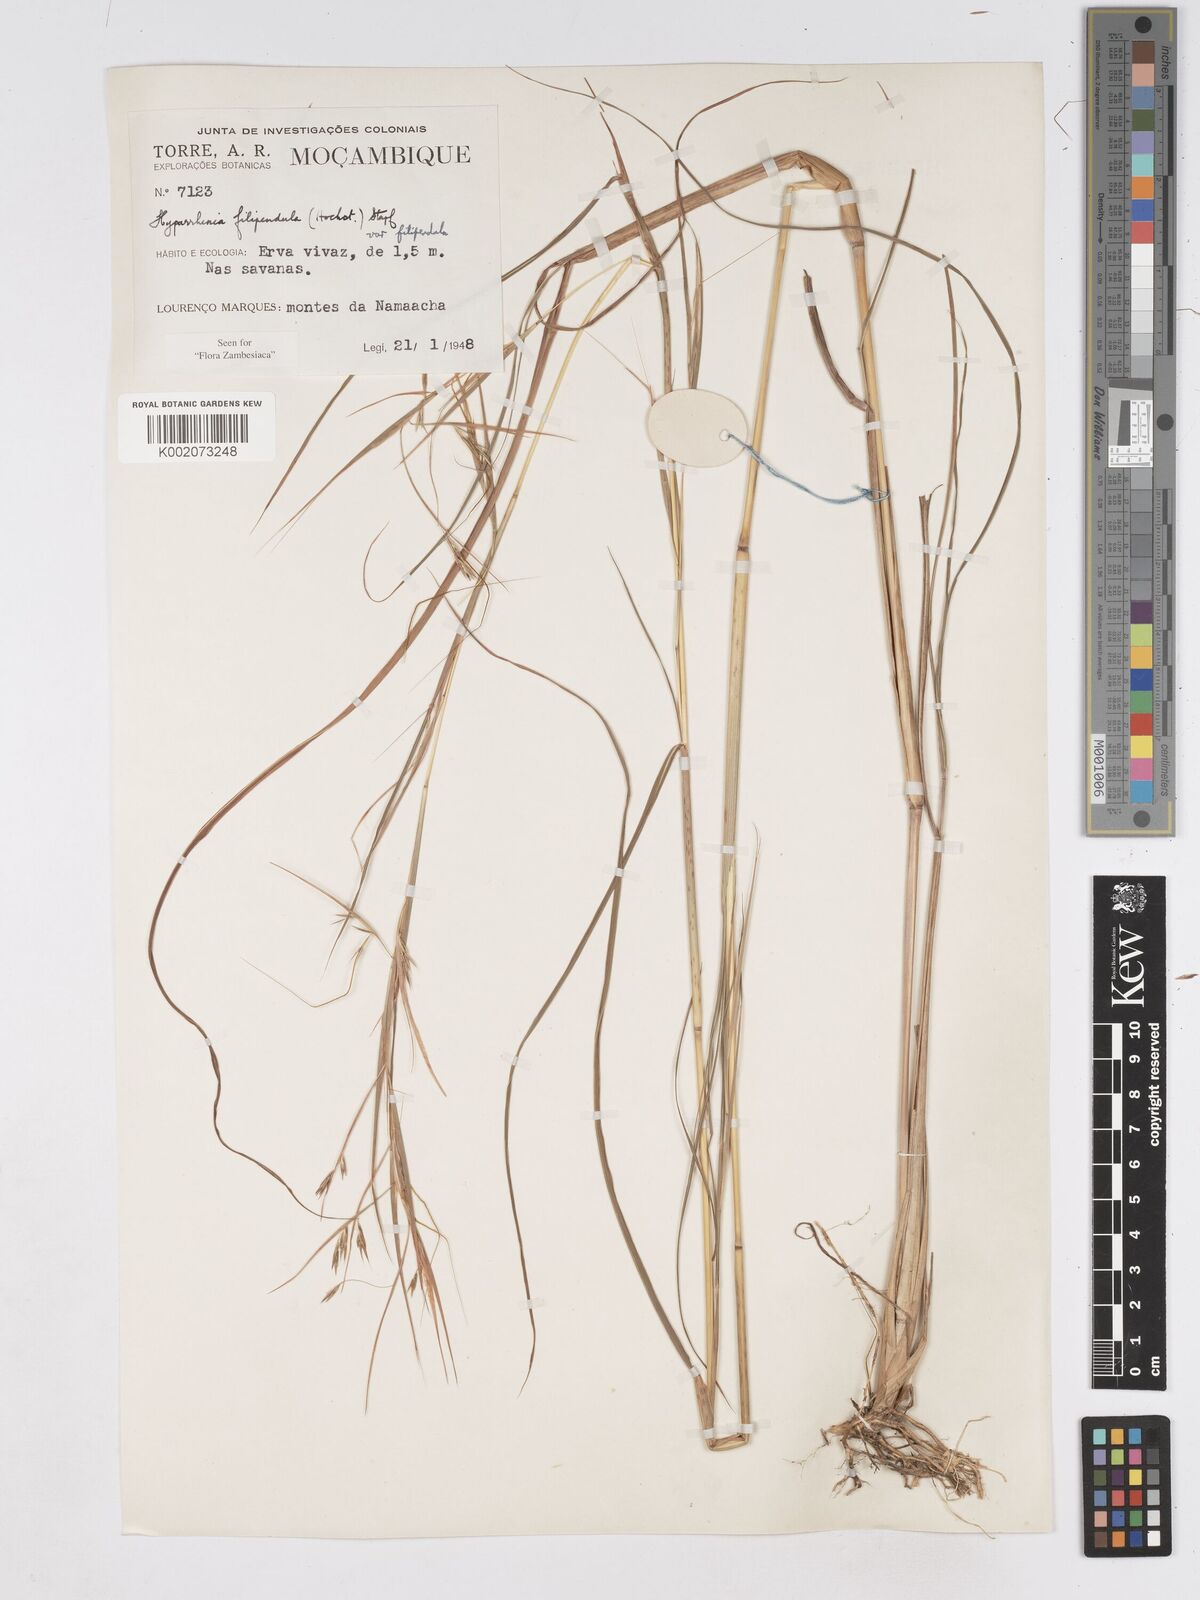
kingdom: Plantae
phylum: Tracheophyta
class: Liliopsida
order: Poales
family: Poaceae
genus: Hyparrhenia
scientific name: Hyparrhenia filipendula
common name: Tambookie grass
